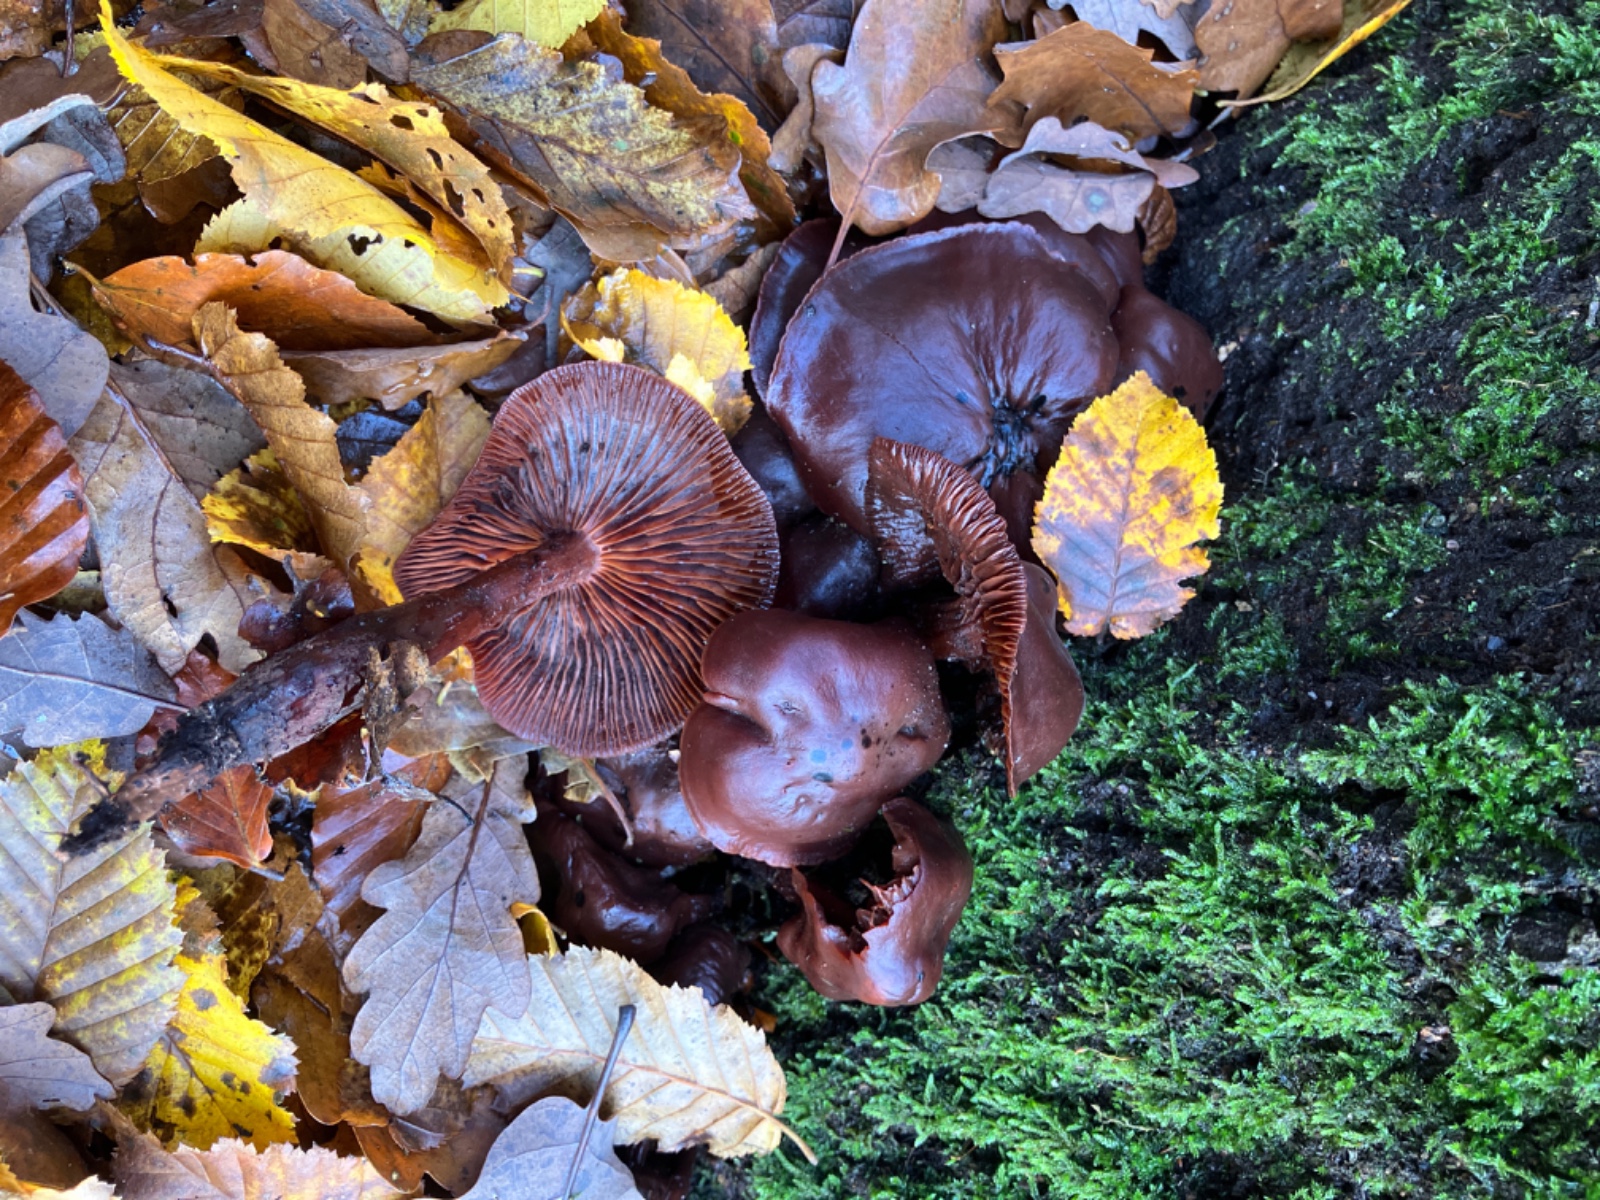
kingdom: Fungi
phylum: Basidiomycota
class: Agaricomycetes
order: Agaricales
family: Omphalotaceae
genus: Gymnopus
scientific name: Gymnopus fusipes
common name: tenstokket fladhat
